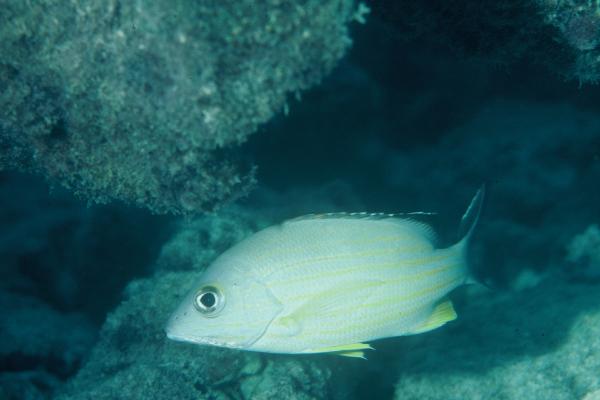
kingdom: Animalia
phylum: Chordata
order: Perciformes
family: Lutjanidae
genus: Lutjanus
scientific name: Lutjanus fulvus
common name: Blacktail snapper
